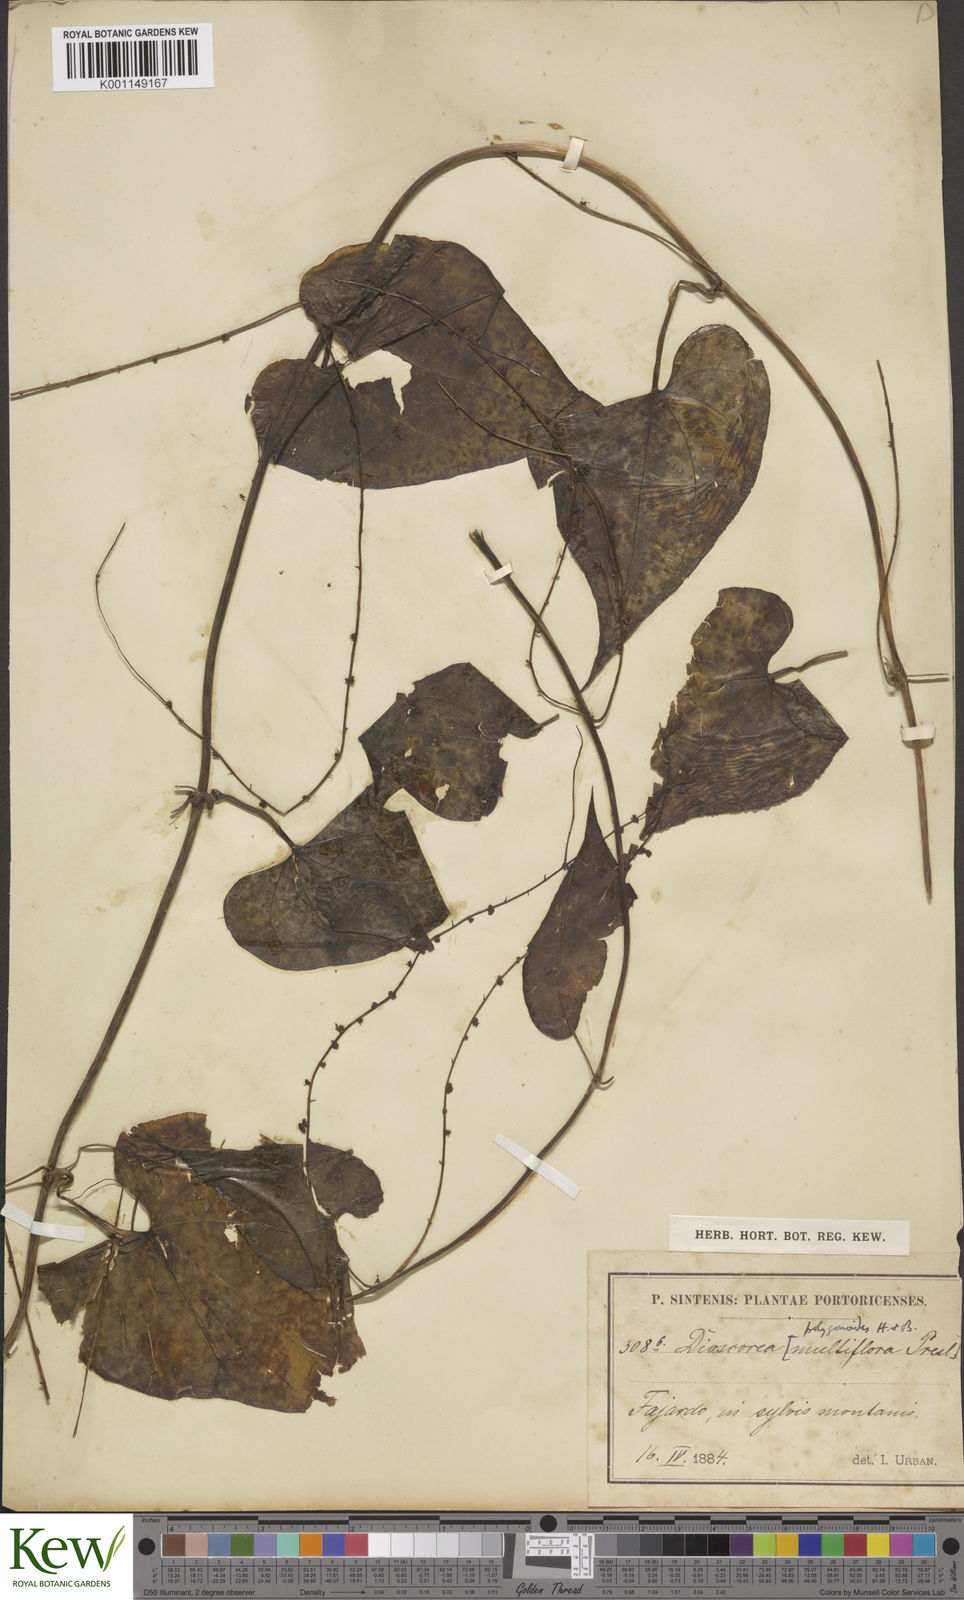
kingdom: Plantae
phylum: Tracheophyta
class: Liliopsida
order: Dioscoreales
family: Dioscoreaceae
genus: Dioscorea
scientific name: Dioscorea polygonoides
